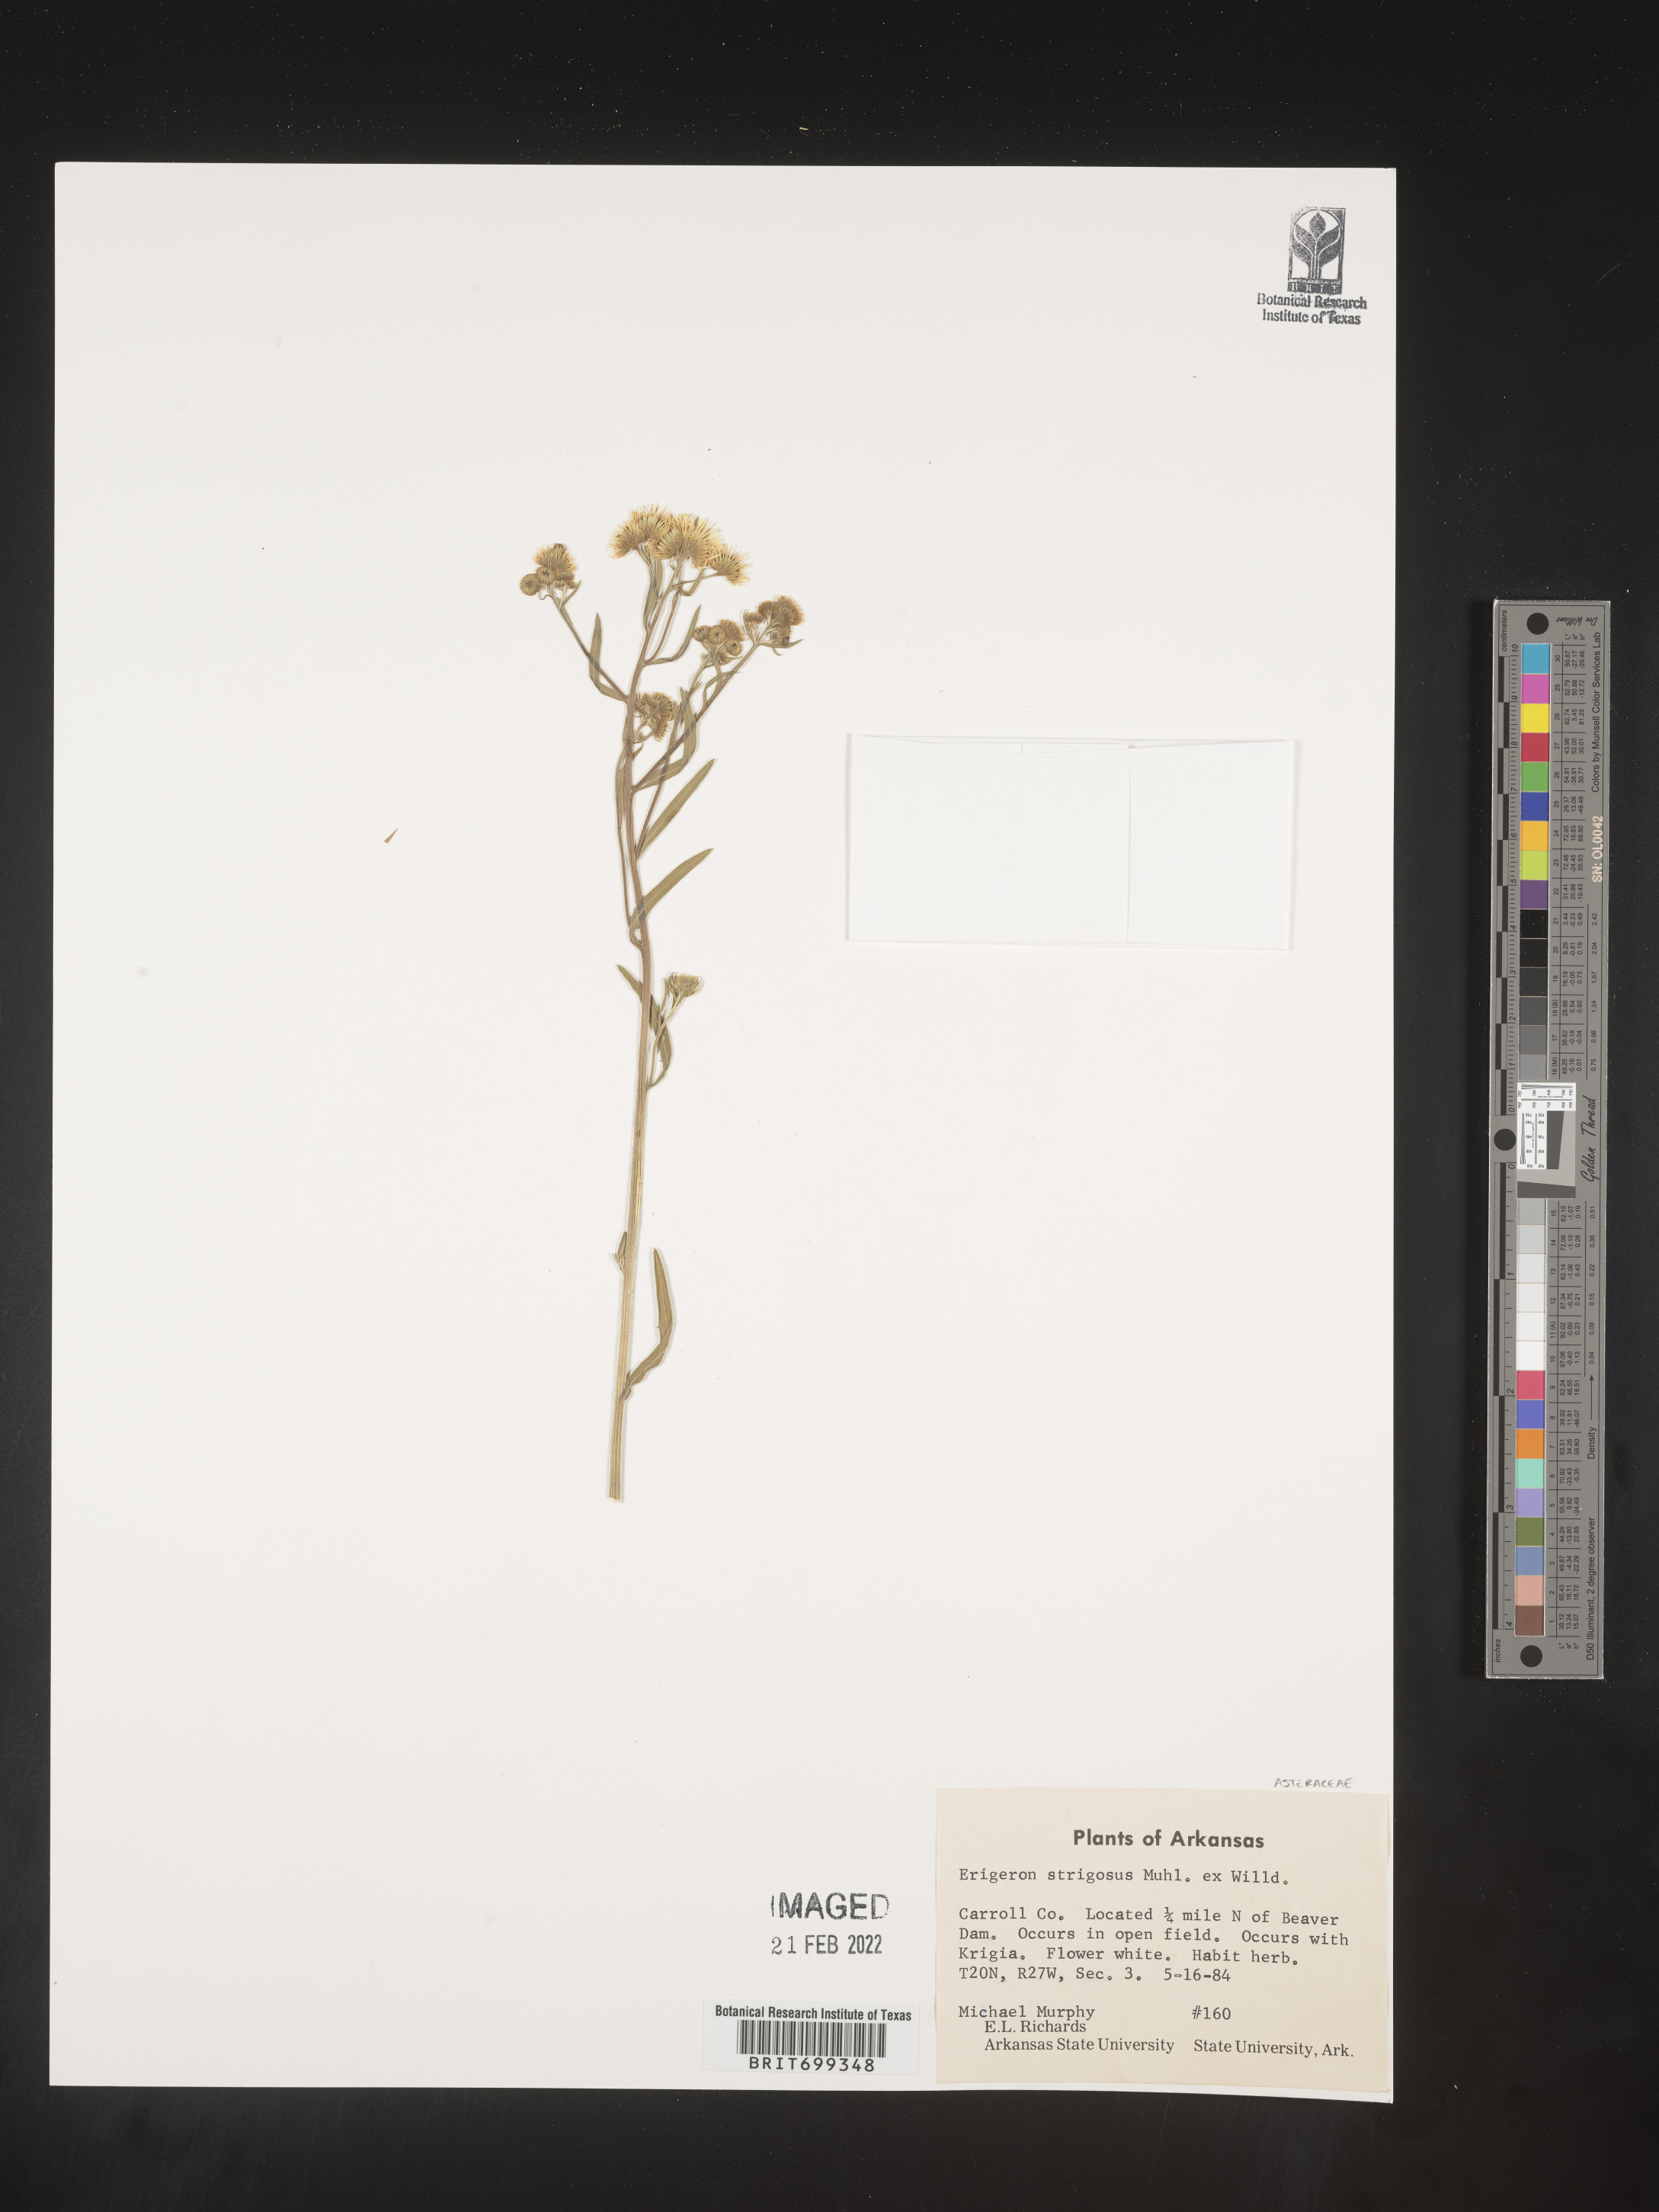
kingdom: Plantae
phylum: Tracheophyta
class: Magnoliopsida
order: Asterales
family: Asteraceae
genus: Erigeron
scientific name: Erigeron strigosus
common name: Common eastern fleabane
